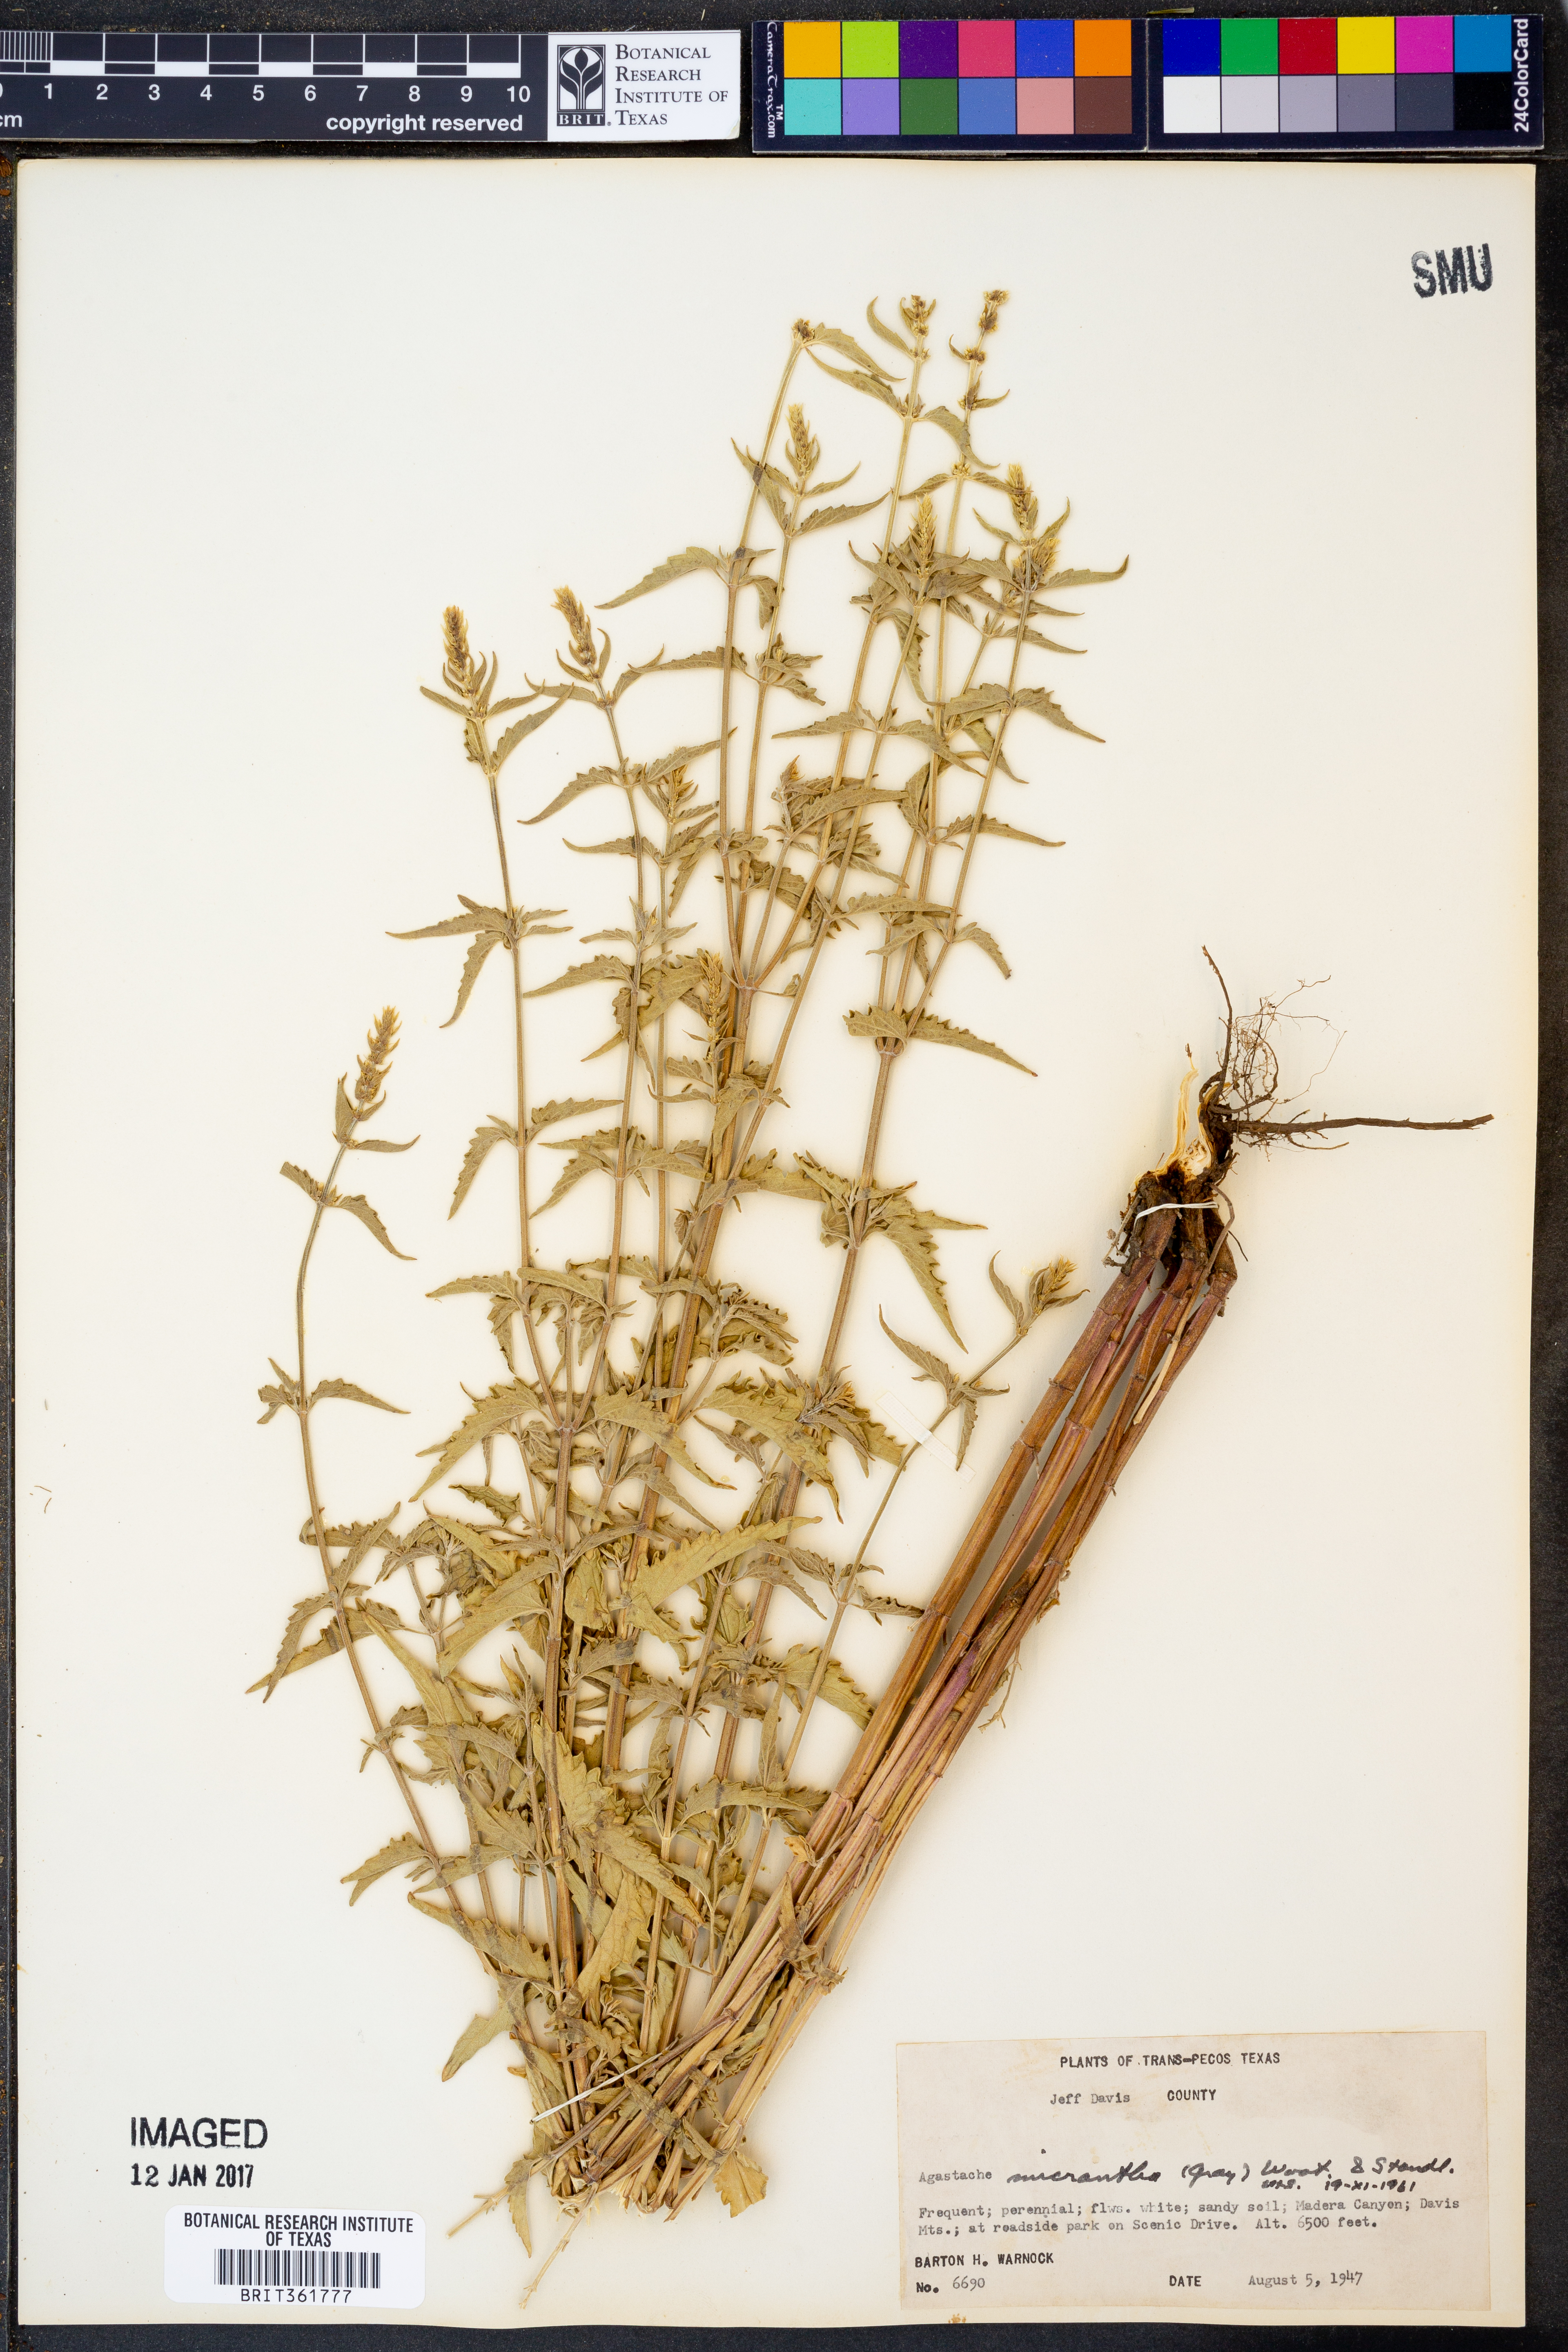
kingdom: Plantae
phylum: Tracheophyta
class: Magnoliopsida
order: Lamiales
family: Lamiaceae
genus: Agastache
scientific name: Agastache micrantha
